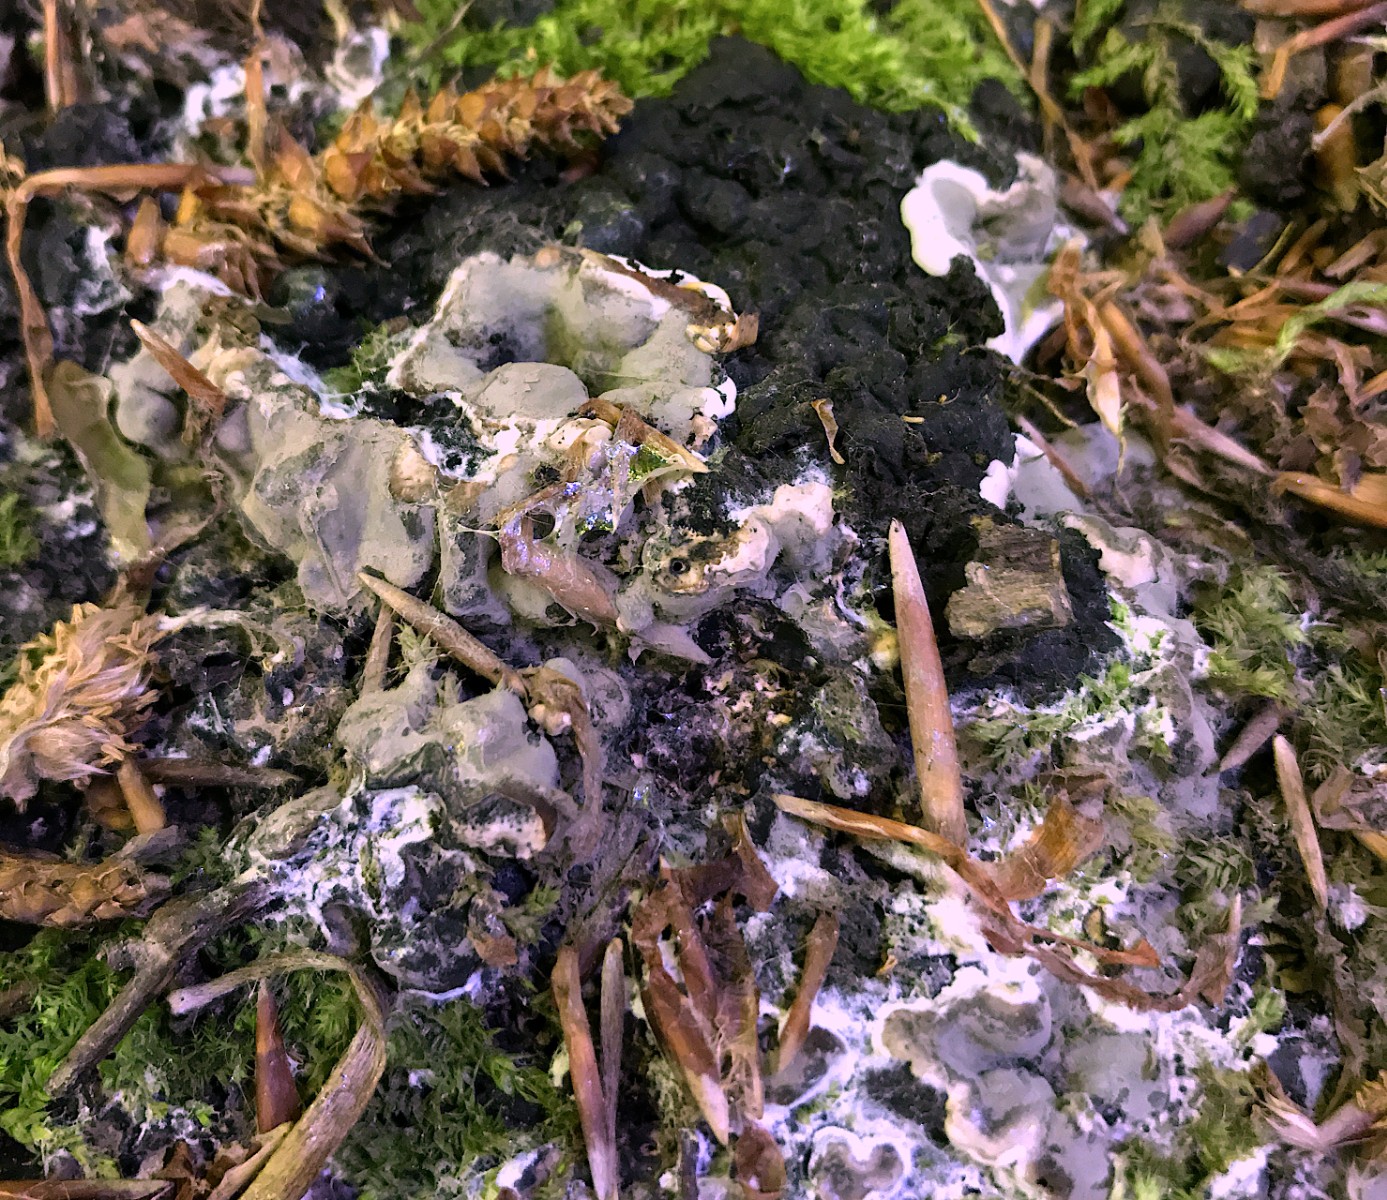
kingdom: Fungi
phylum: Ascomycota
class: Sordariomycetes
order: Xylariales
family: Xylariaceae
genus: Kretzschmaria
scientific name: Kretzschmaria deusta
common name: stor kulsvamp
